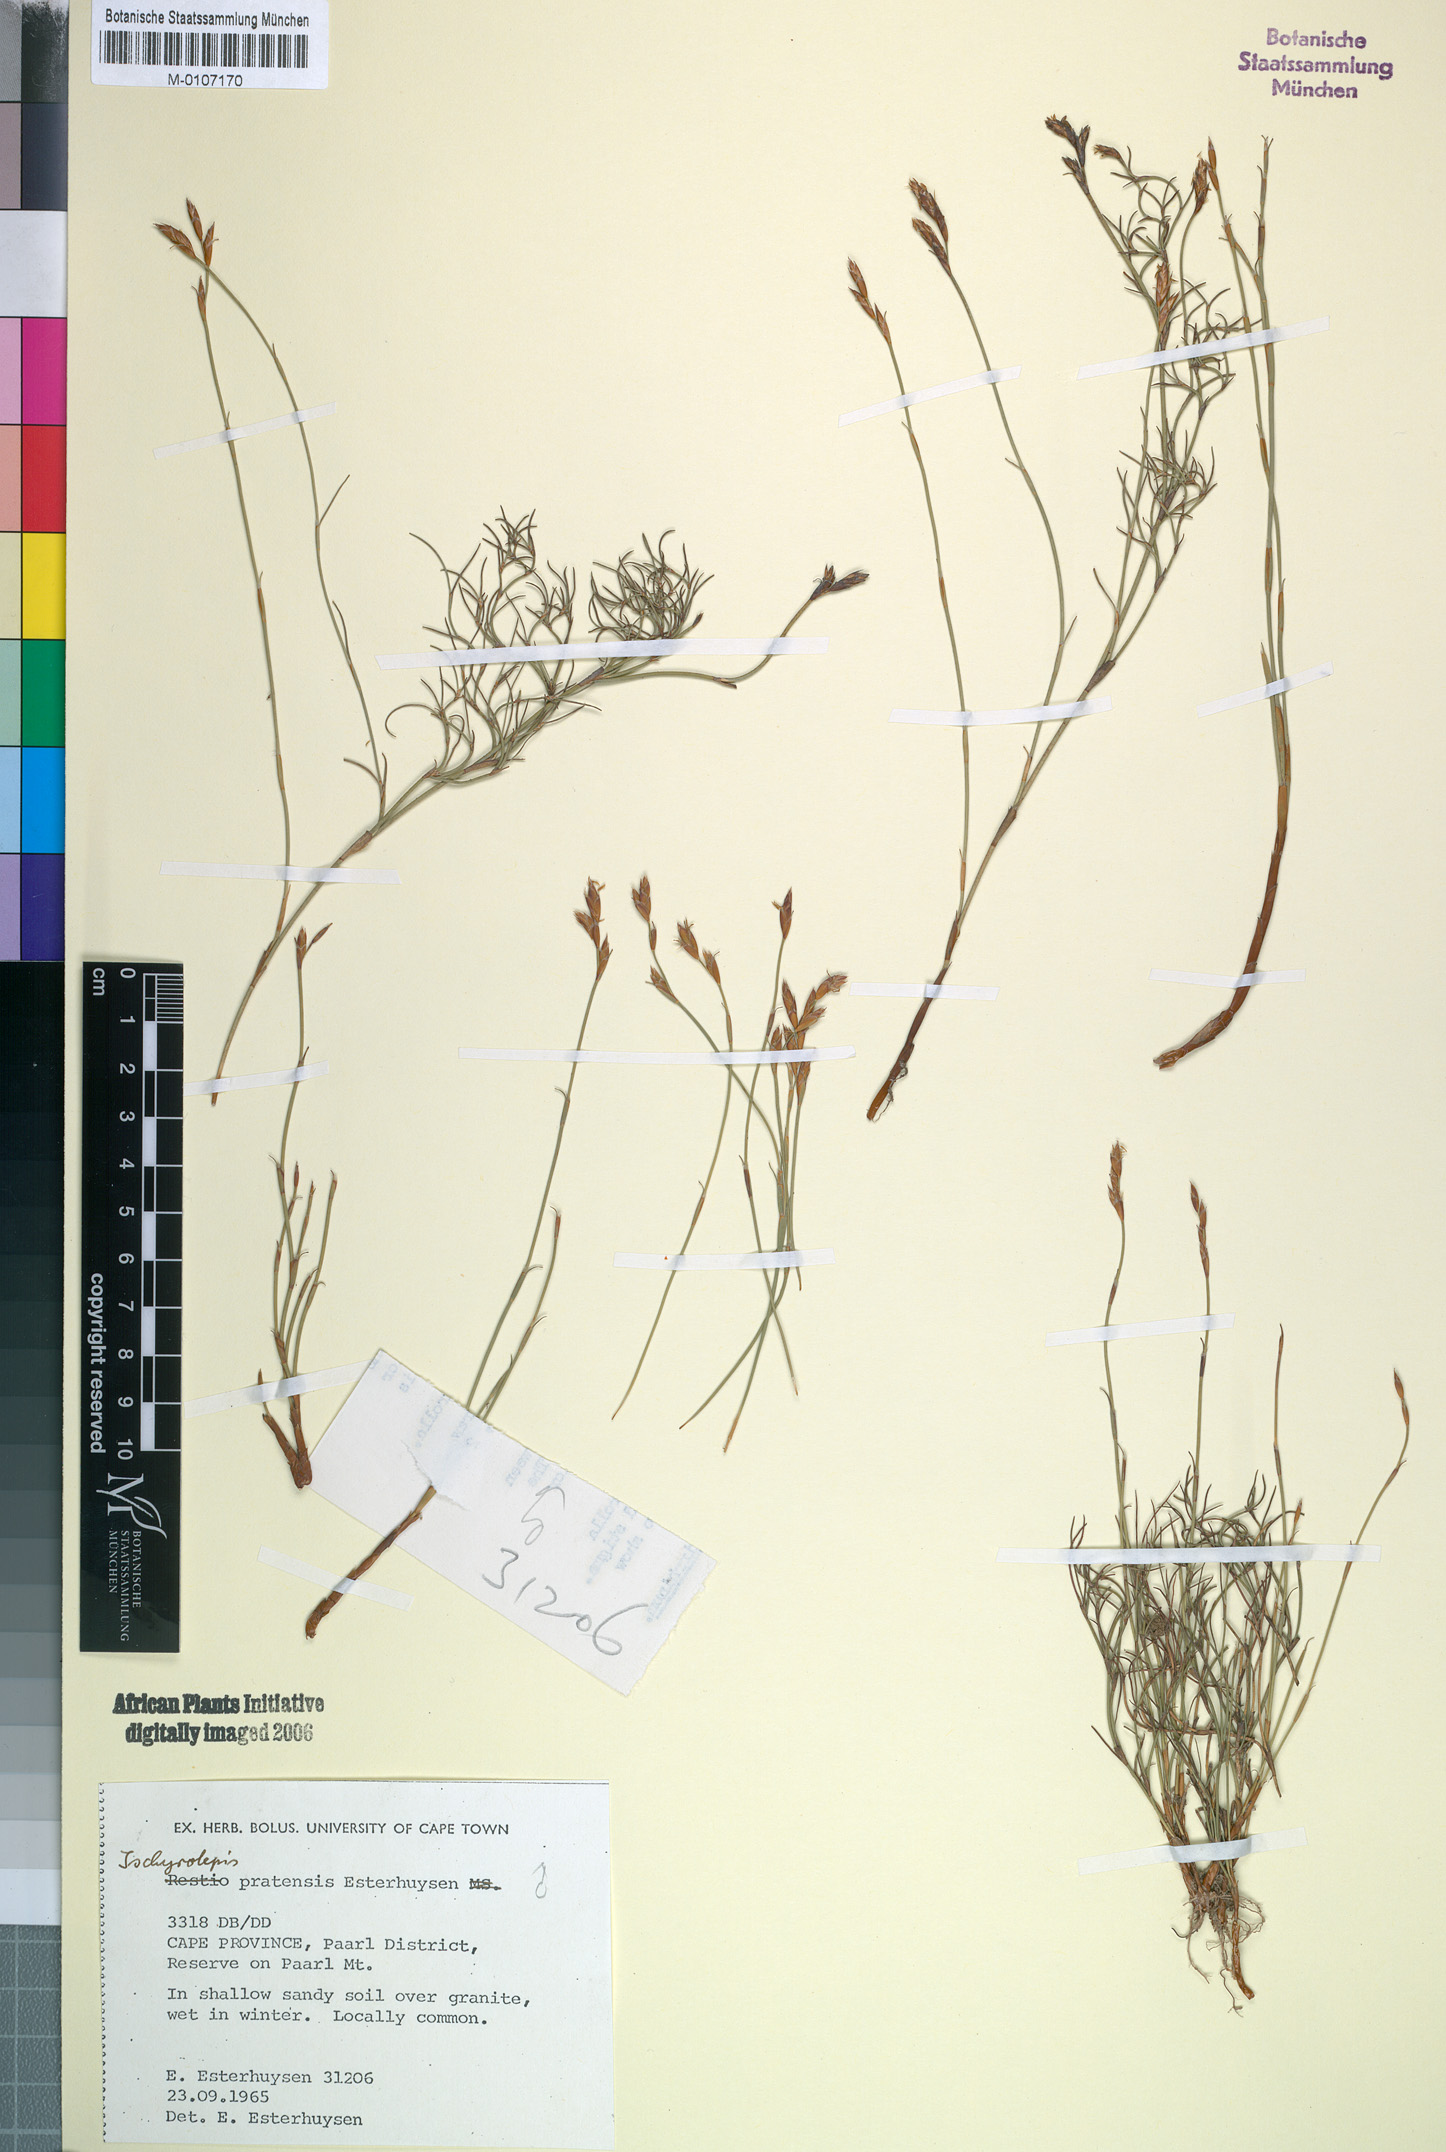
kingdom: Plantae
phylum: Tracheophyta
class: Liliopsida
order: Poales
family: Restionaceae
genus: Restio
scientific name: Restio pratensis
